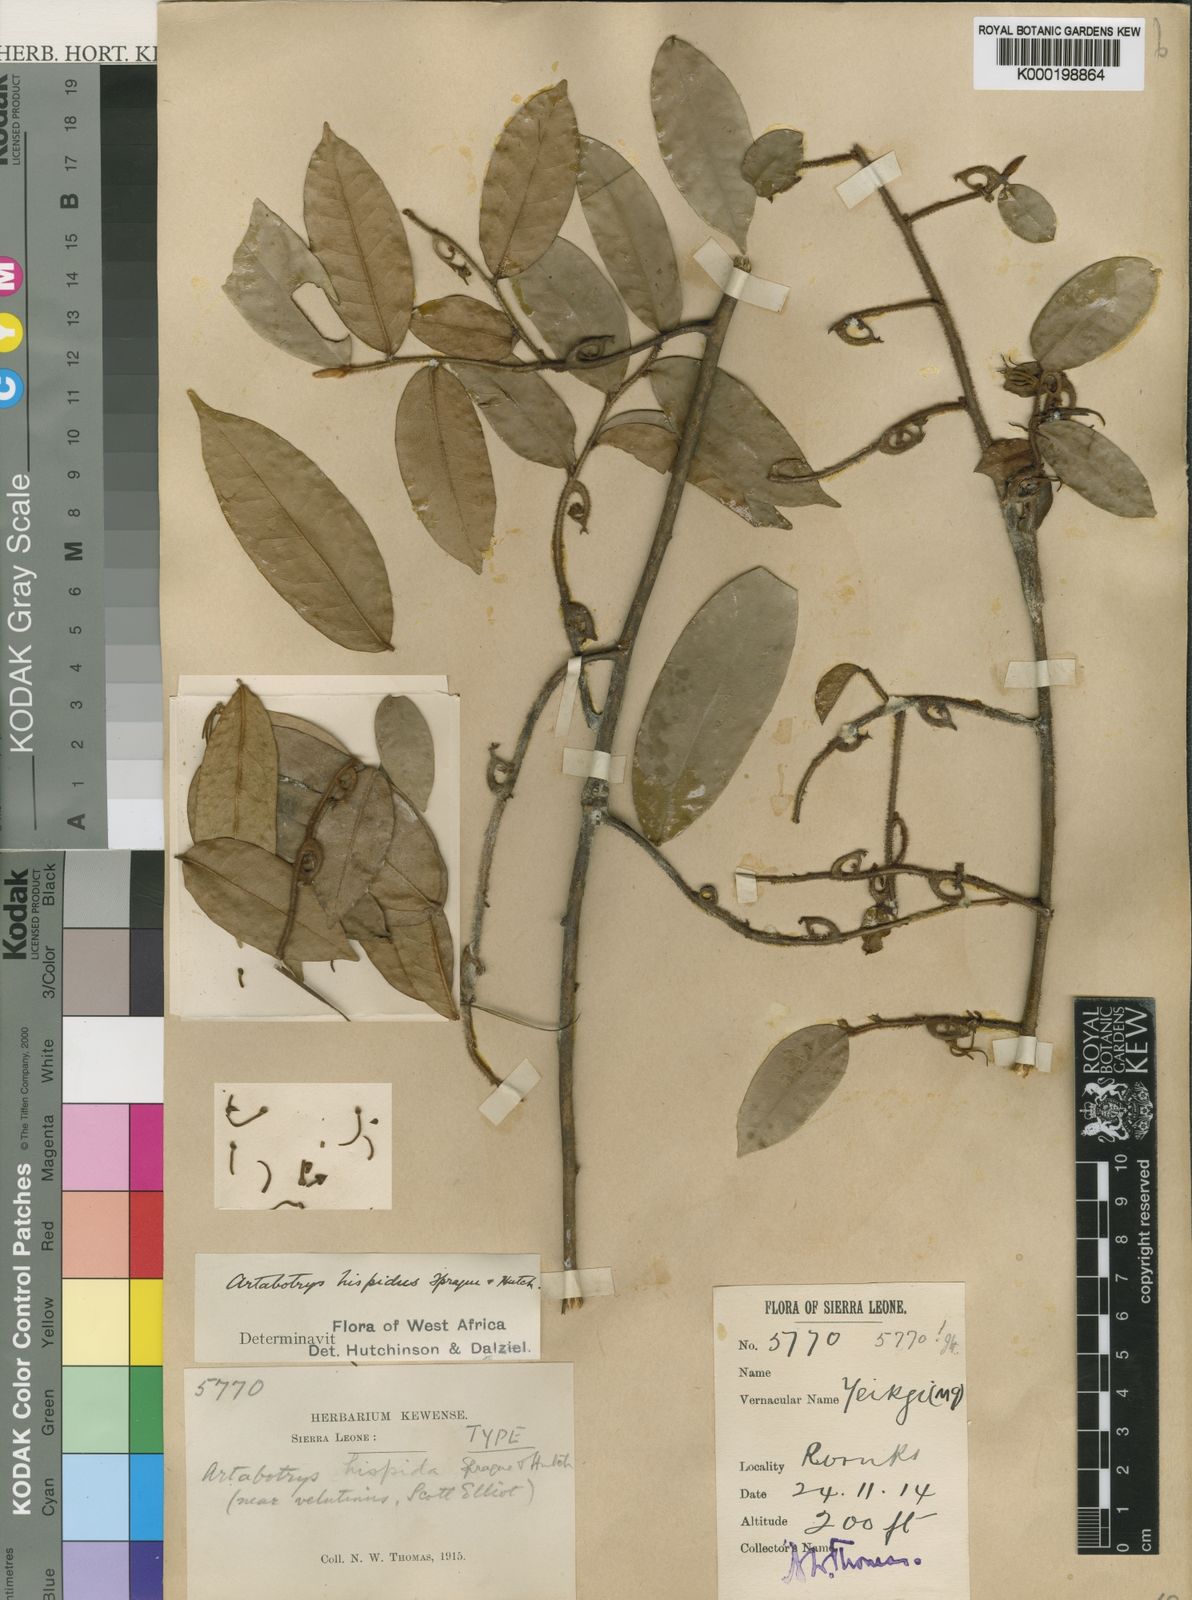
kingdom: Plantae
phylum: Tracheophyta
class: Magnoliopsida
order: Magnoliales
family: Annonaceae
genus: Artabotrys
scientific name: Artabotrys hispidus
